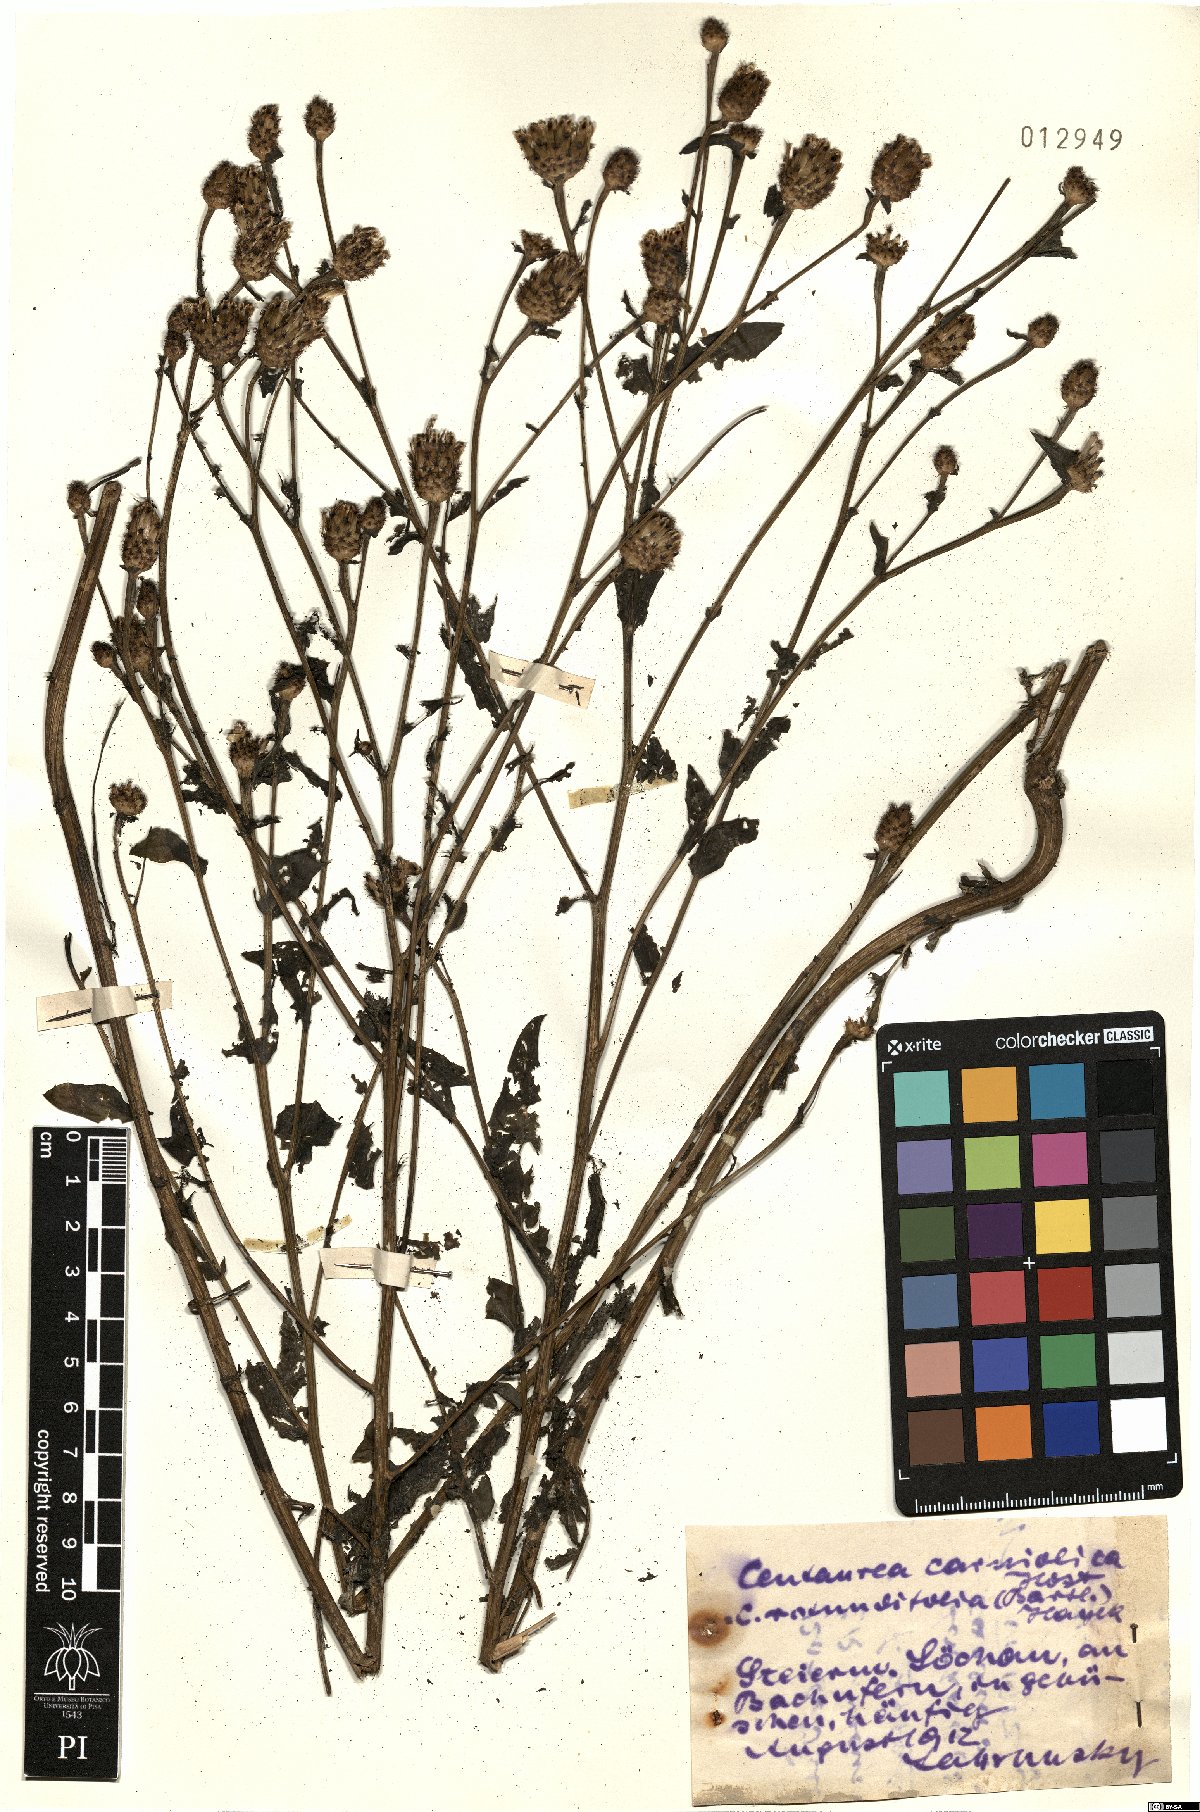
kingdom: Plantae
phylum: Tracheophyta
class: Magnoliopsida
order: Asterales
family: Asteraceae
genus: Centaurea
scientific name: Centaurea carniolica
